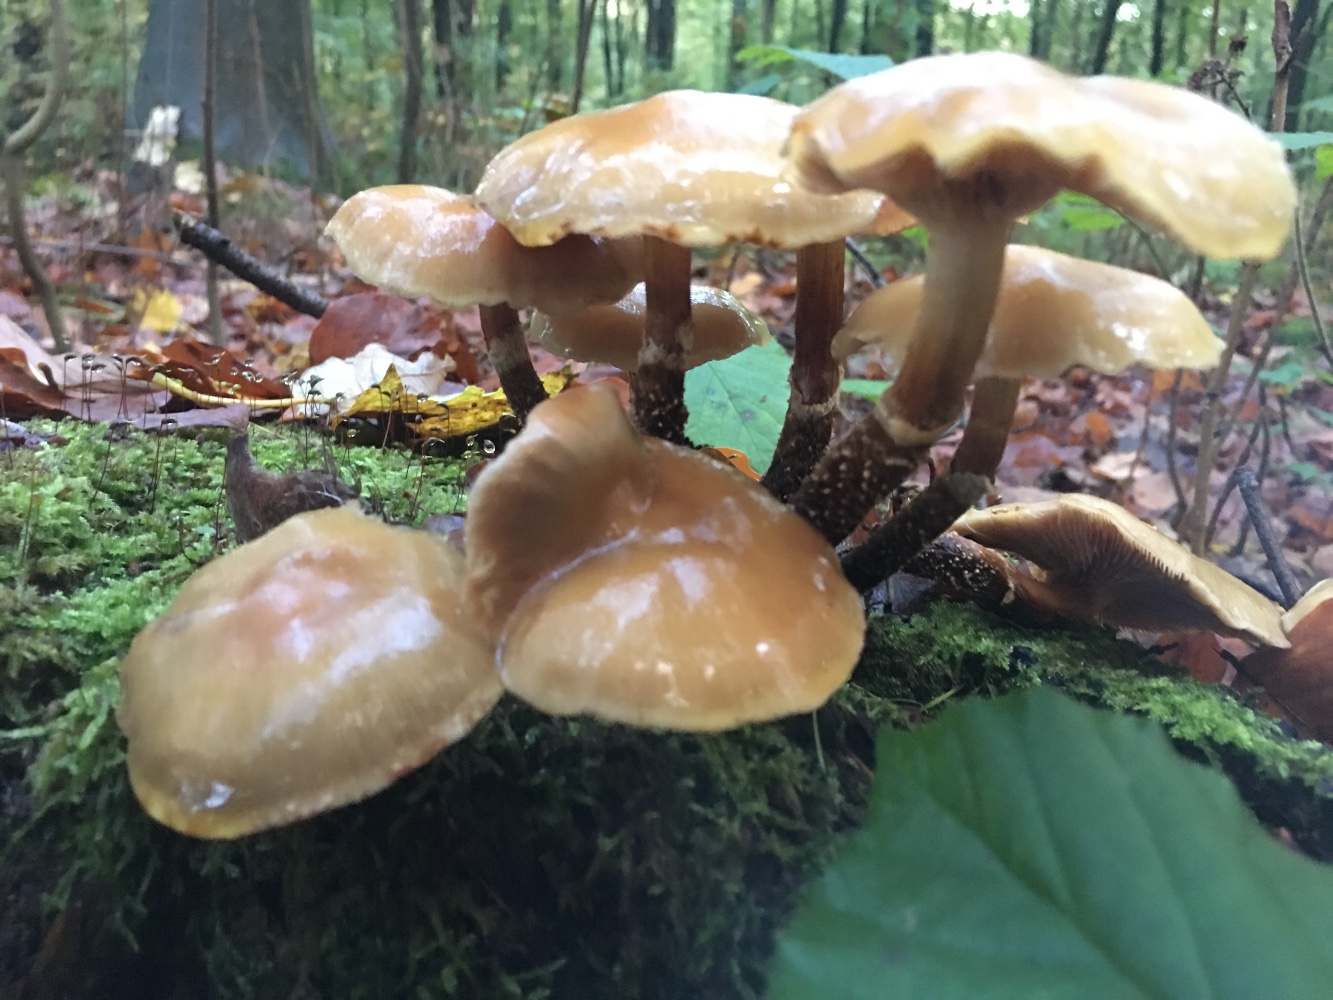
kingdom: Fungi
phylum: Basidiomycota
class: Agaricomycetes
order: Agaricales
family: Strophariaceae
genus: Kuehneromyces
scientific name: Kuehneromyces mutabilis
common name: foranderlig skælhat
